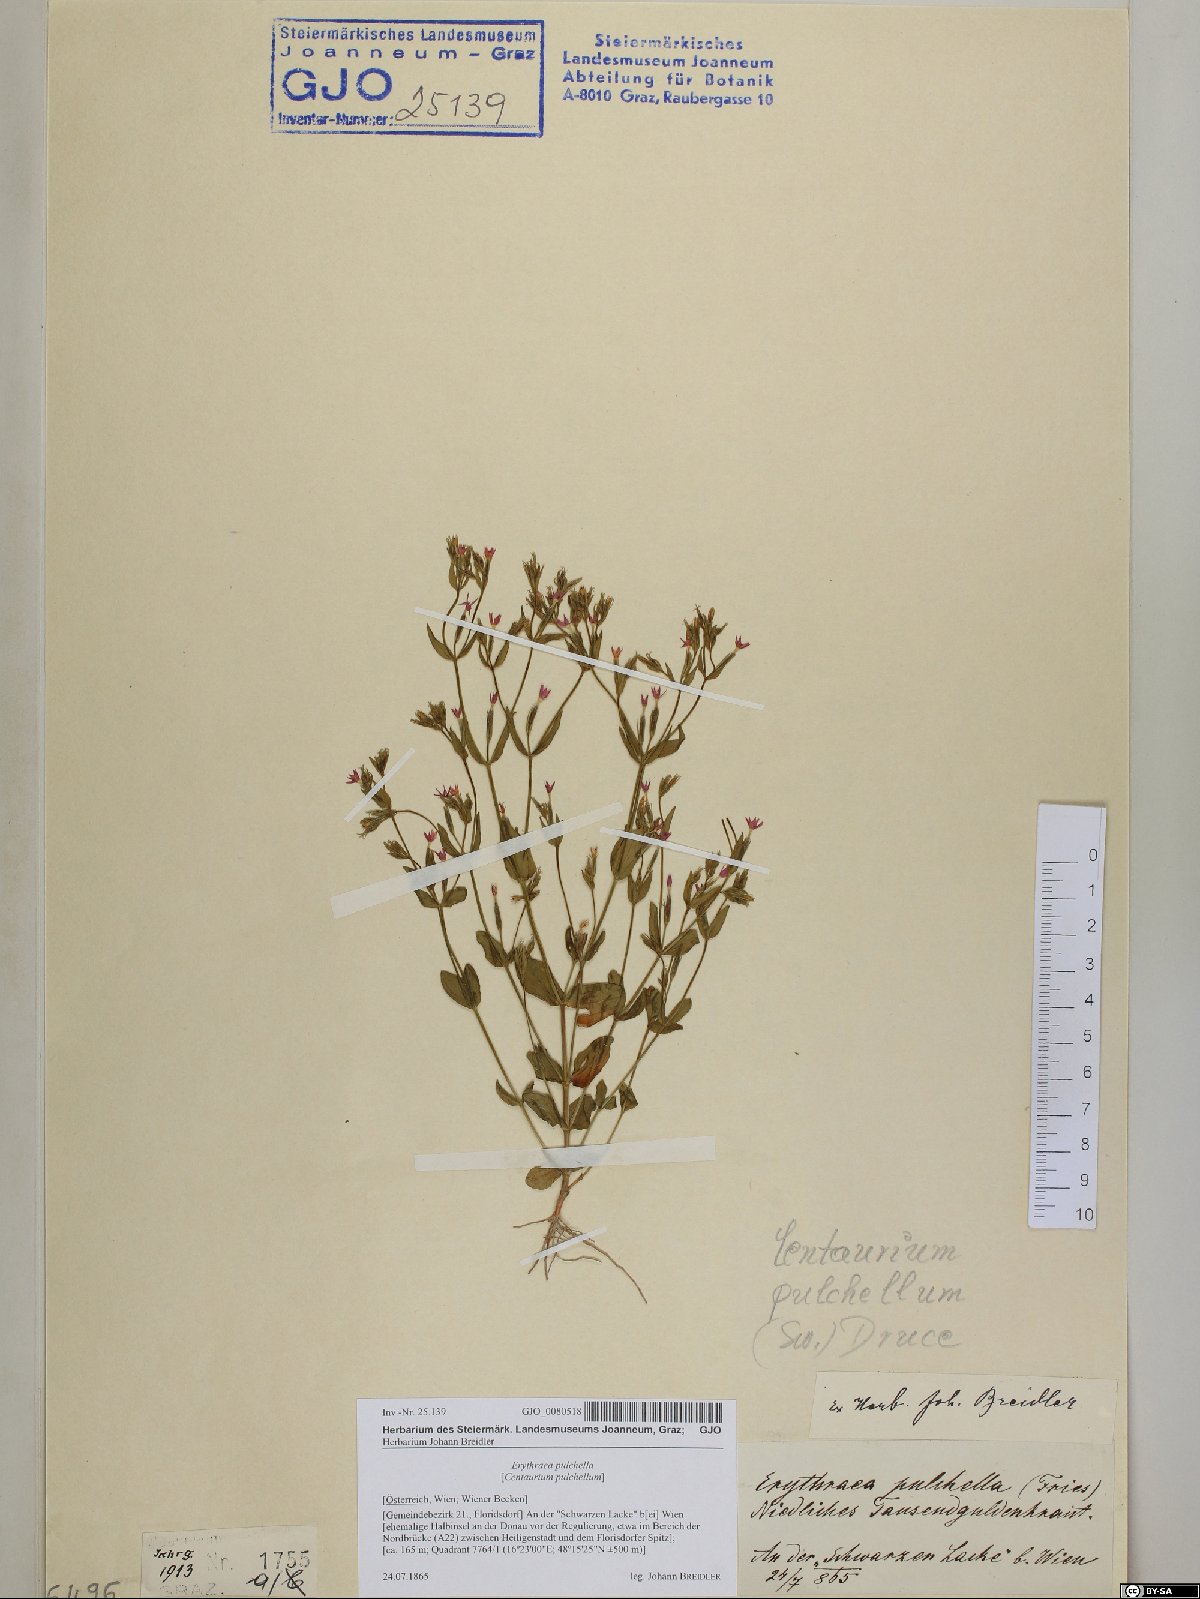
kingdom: Plantae
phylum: Tracheophyta
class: Magnoliopsida
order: Gentianales
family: Gentianaceae
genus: Centaurium
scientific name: Centaurium pulchellum
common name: Lesser centaury
